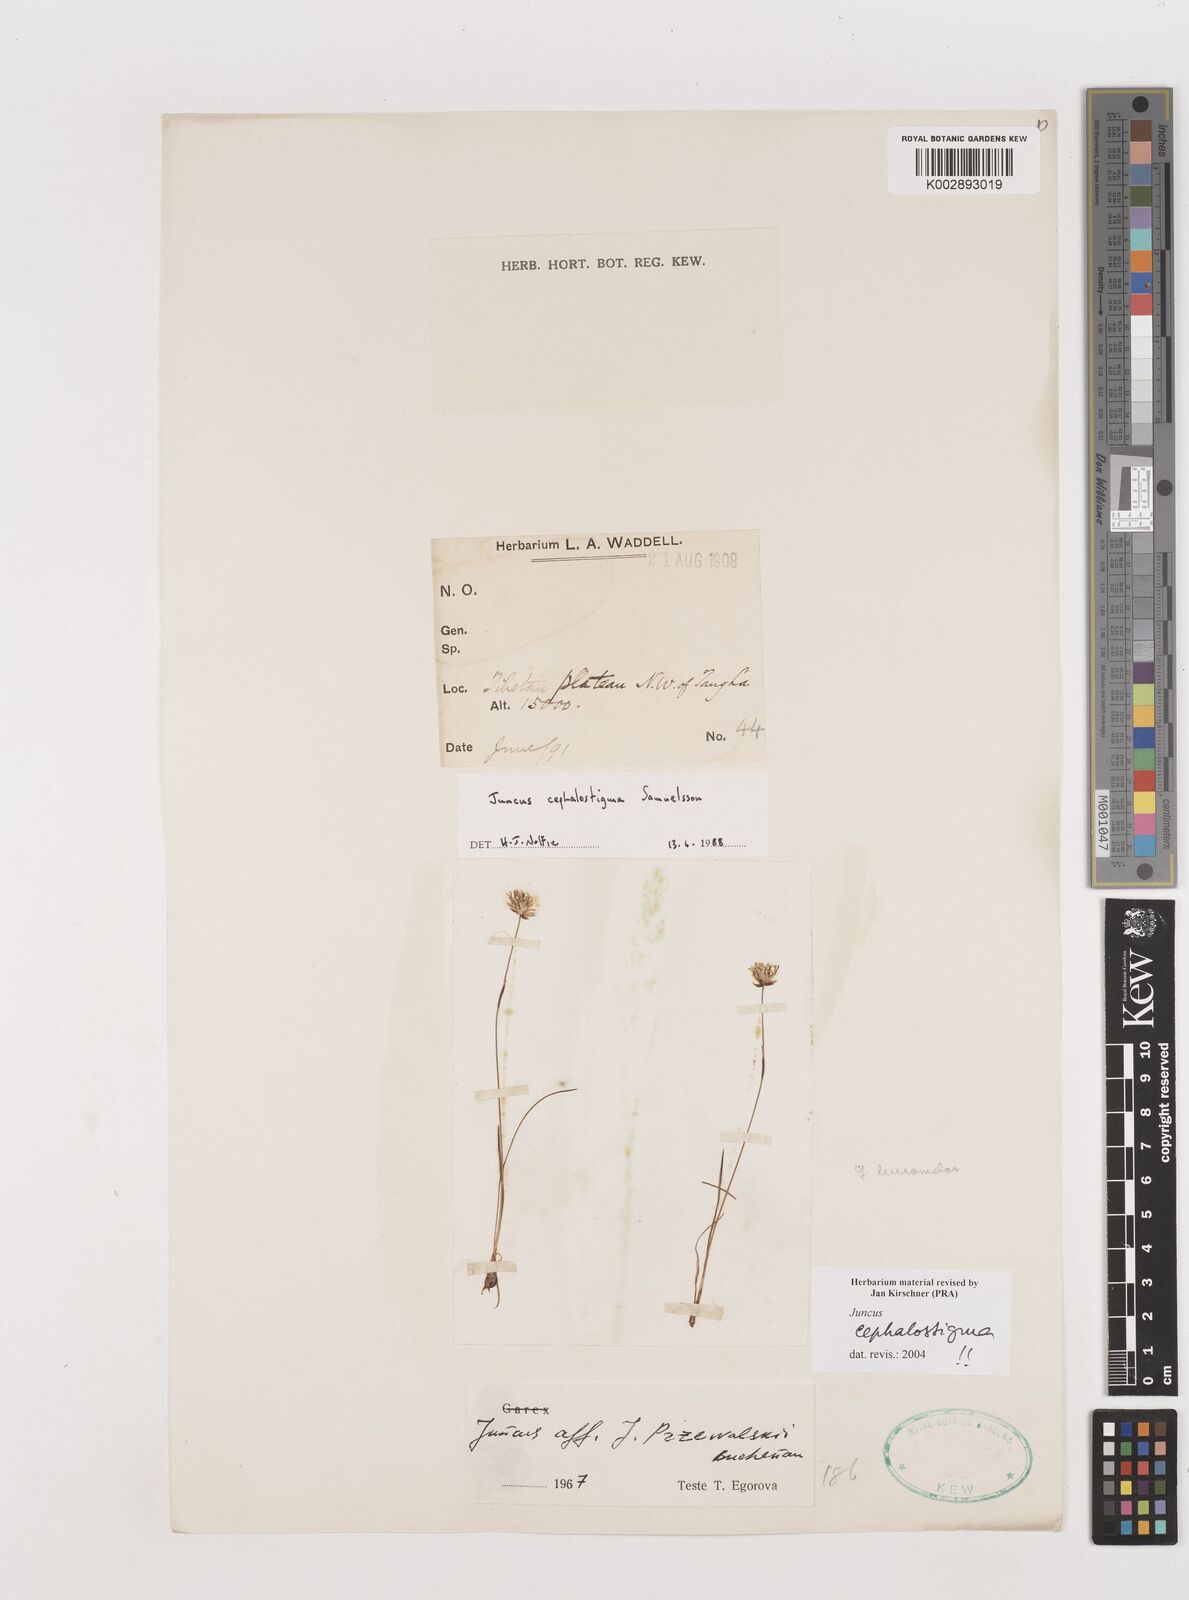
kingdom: Plantae
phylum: Tracheophyta
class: Liliopsida
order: Poales
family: Juncaceae
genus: Juncus
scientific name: Juncus cephalostigma
